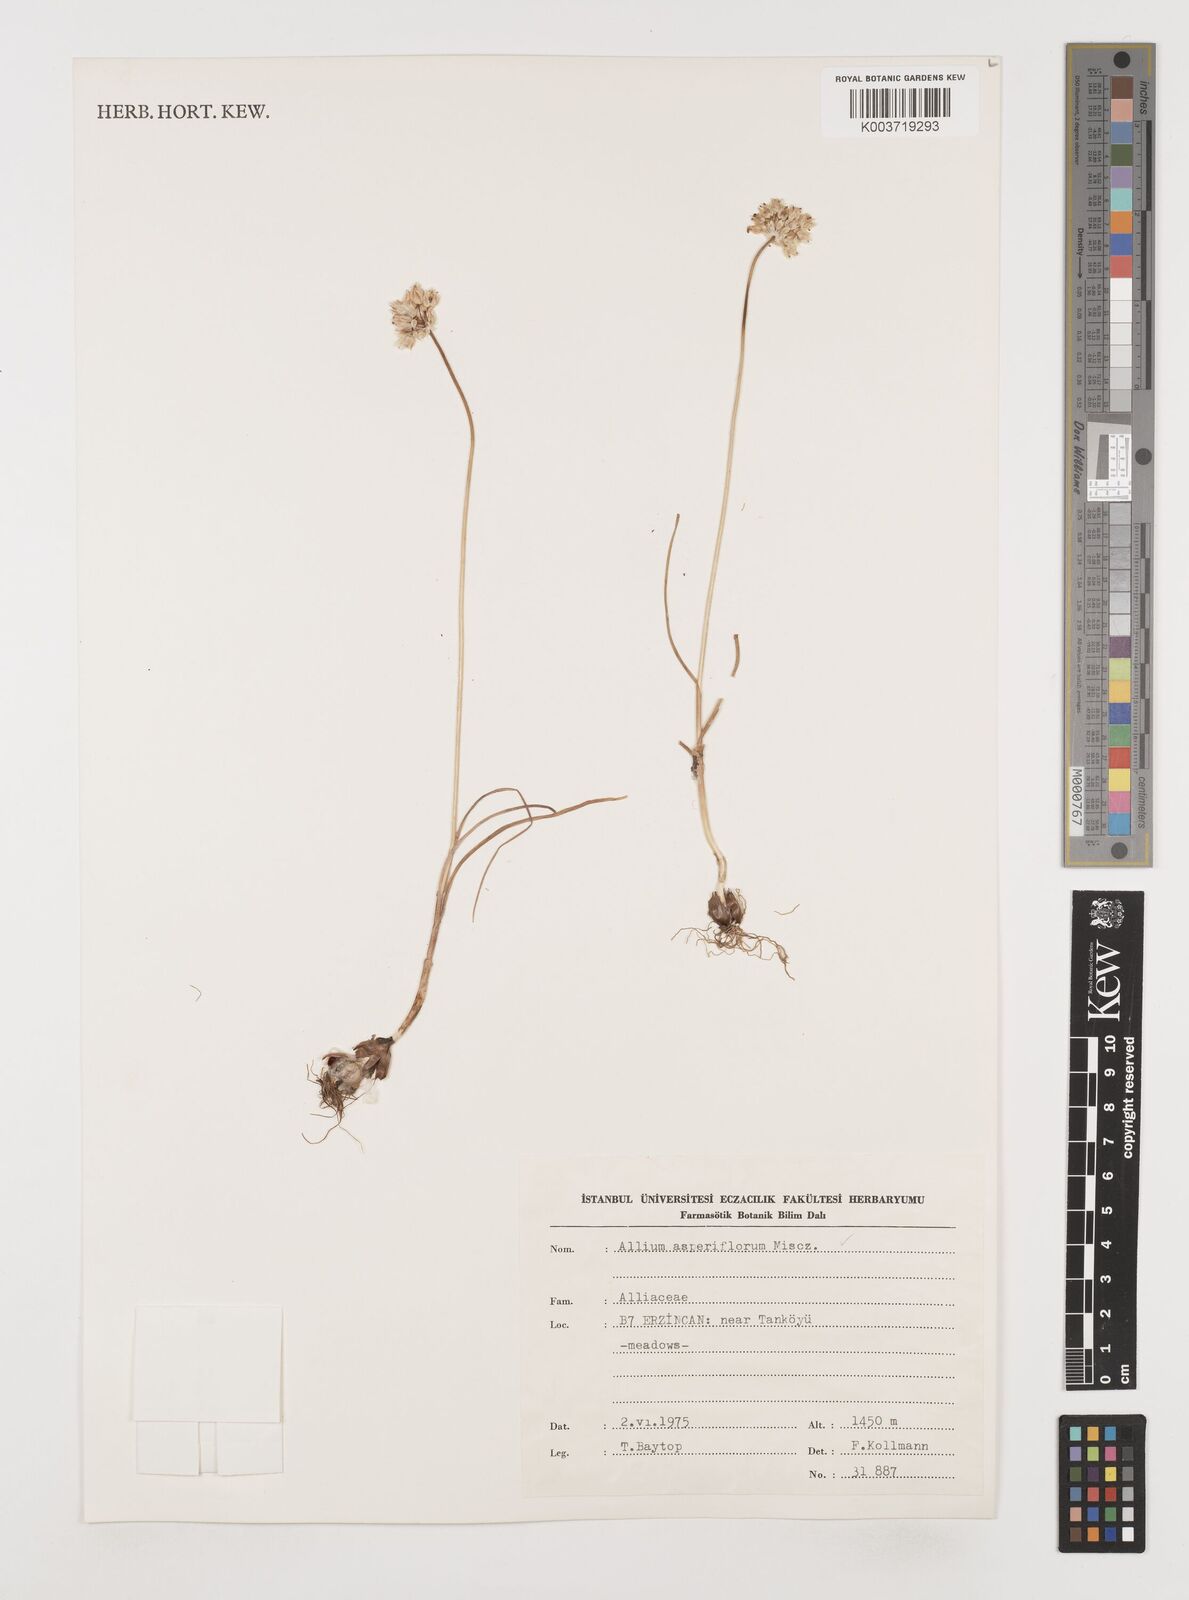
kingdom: Plantae
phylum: Tracheophyta
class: Liliopsida
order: Asparagales
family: Amaryllidaceae
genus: Allium
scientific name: Allium asperiflorum
